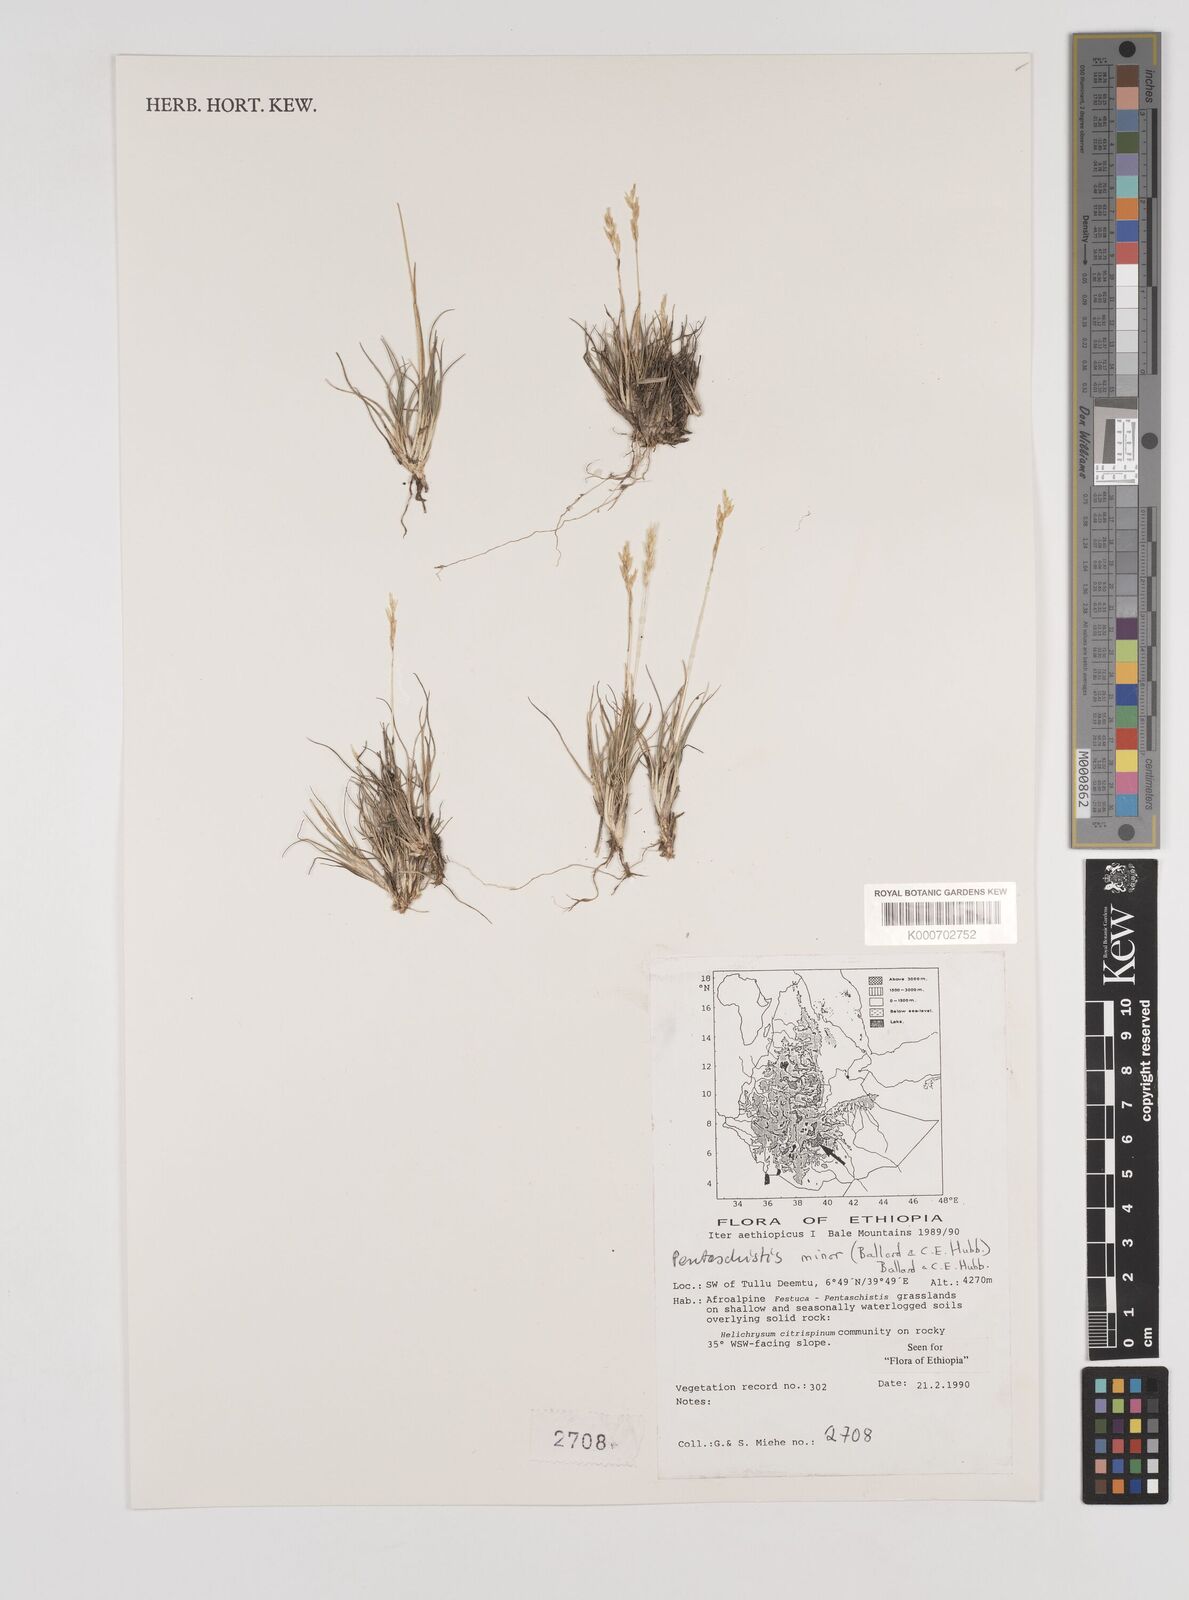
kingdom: Plantae
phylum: Tracheophyta
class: Liliopsida
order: Poales
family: Poaceae
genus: Pentameris
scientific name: Pentameris minor
